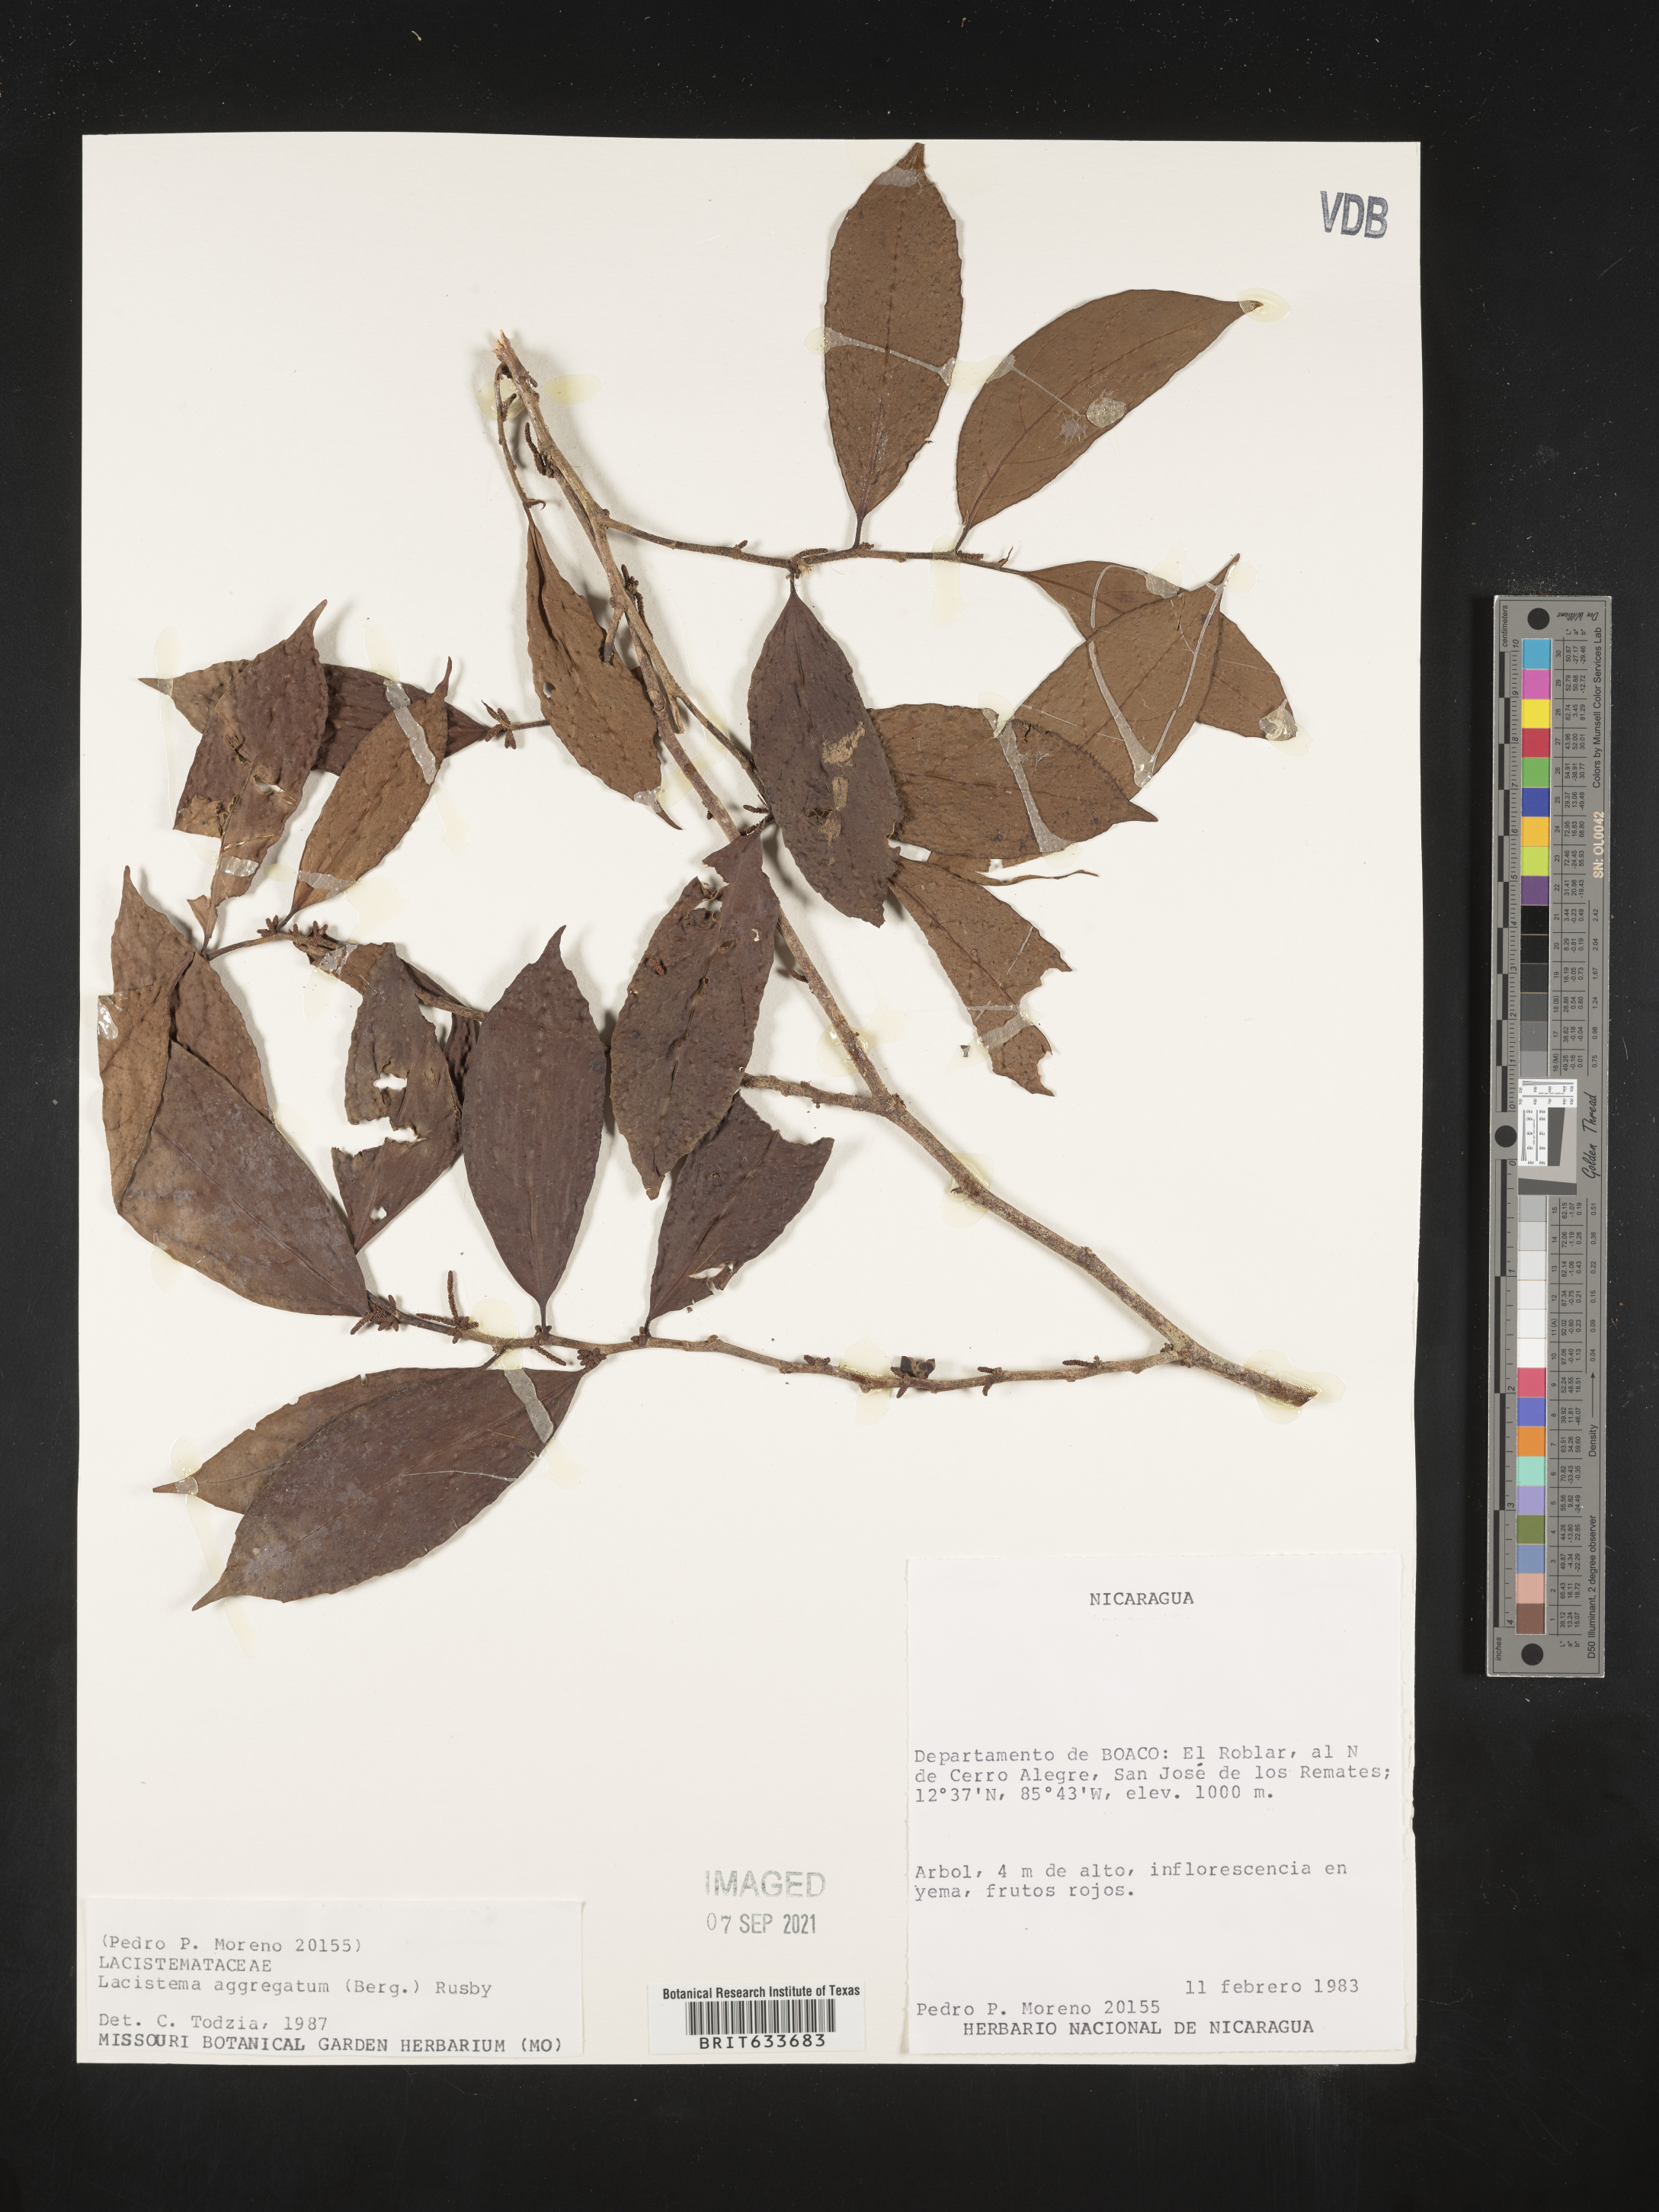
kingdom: Plantae
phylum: Tracheophyta
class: Magnoliopsida
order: Malpighiales
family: Lacistemataceae
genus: Lacistema
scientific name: Lacistema
